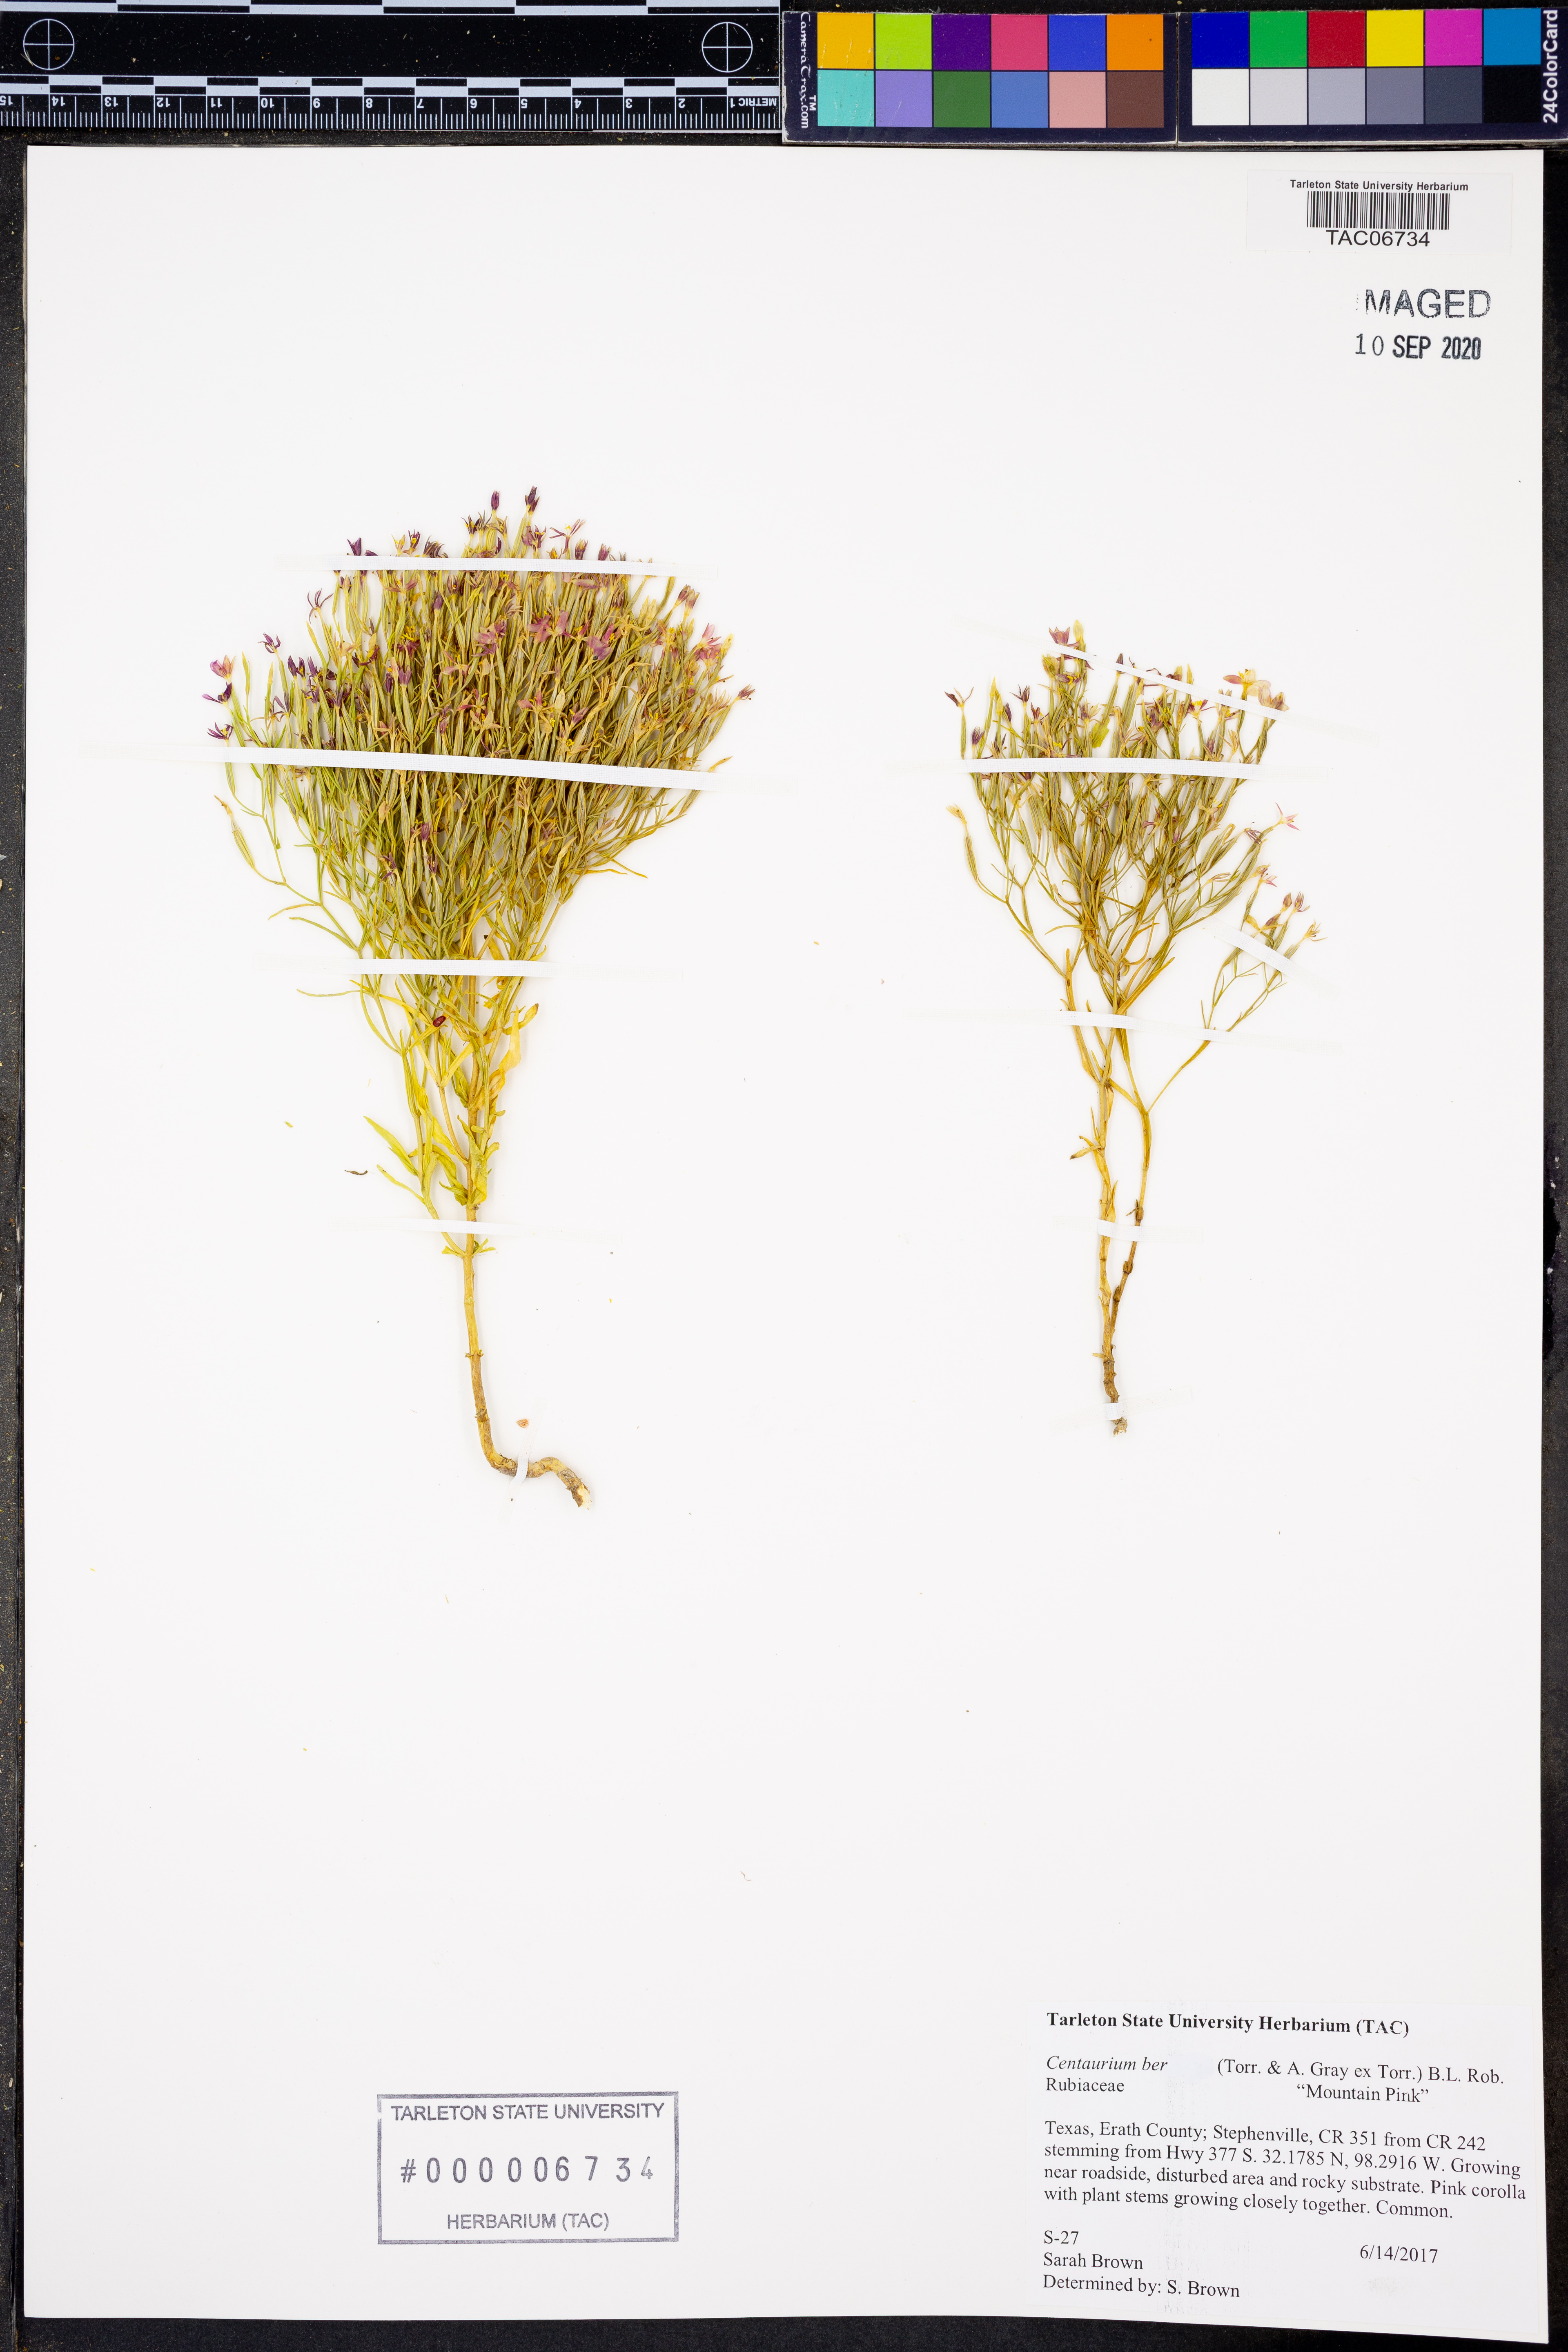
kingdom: Plantae
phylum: Tracheophyta
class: Magnoliopsida
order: Gentianales
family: Gentianaceae
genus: Zeltnera
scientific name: Zeltnera beyrichii
